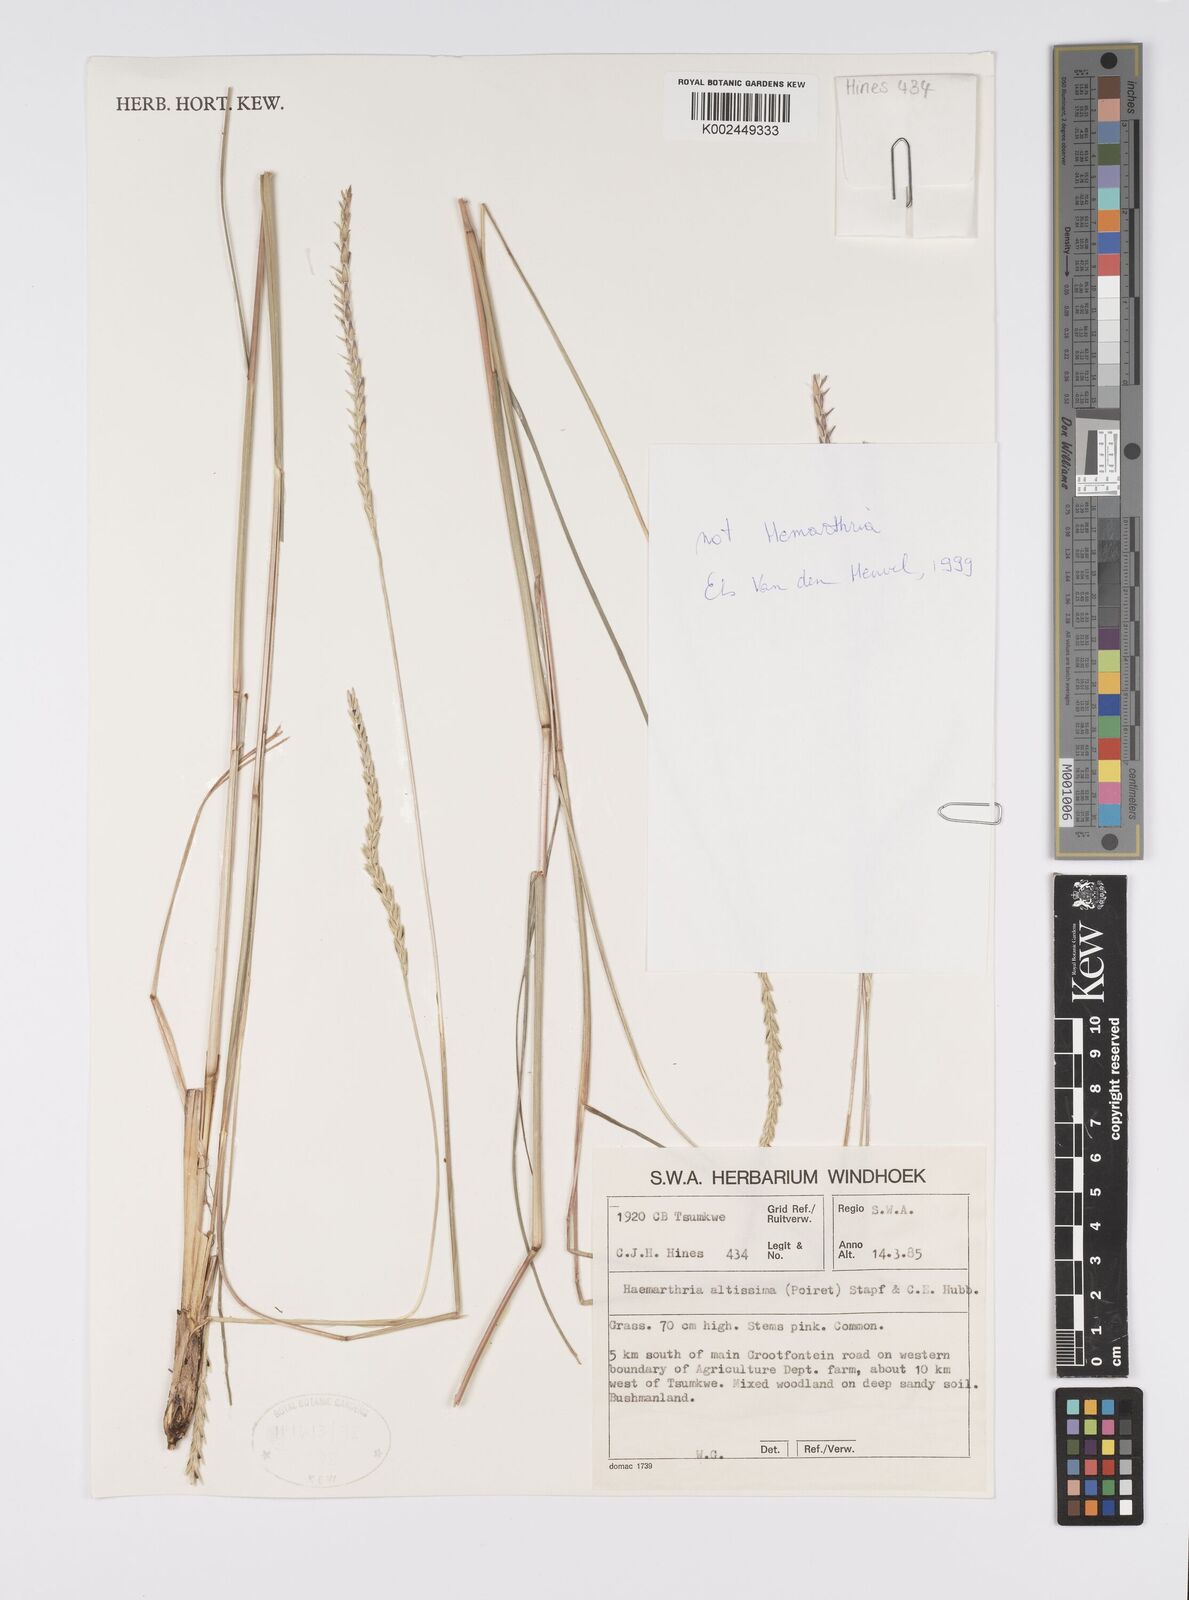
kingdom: Plantae
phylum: Tracheophyta
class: Liliopsida
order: Poales
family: Poaceae
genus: Hemarthria
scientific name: Hemarthria altissima
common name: African jointgrass
